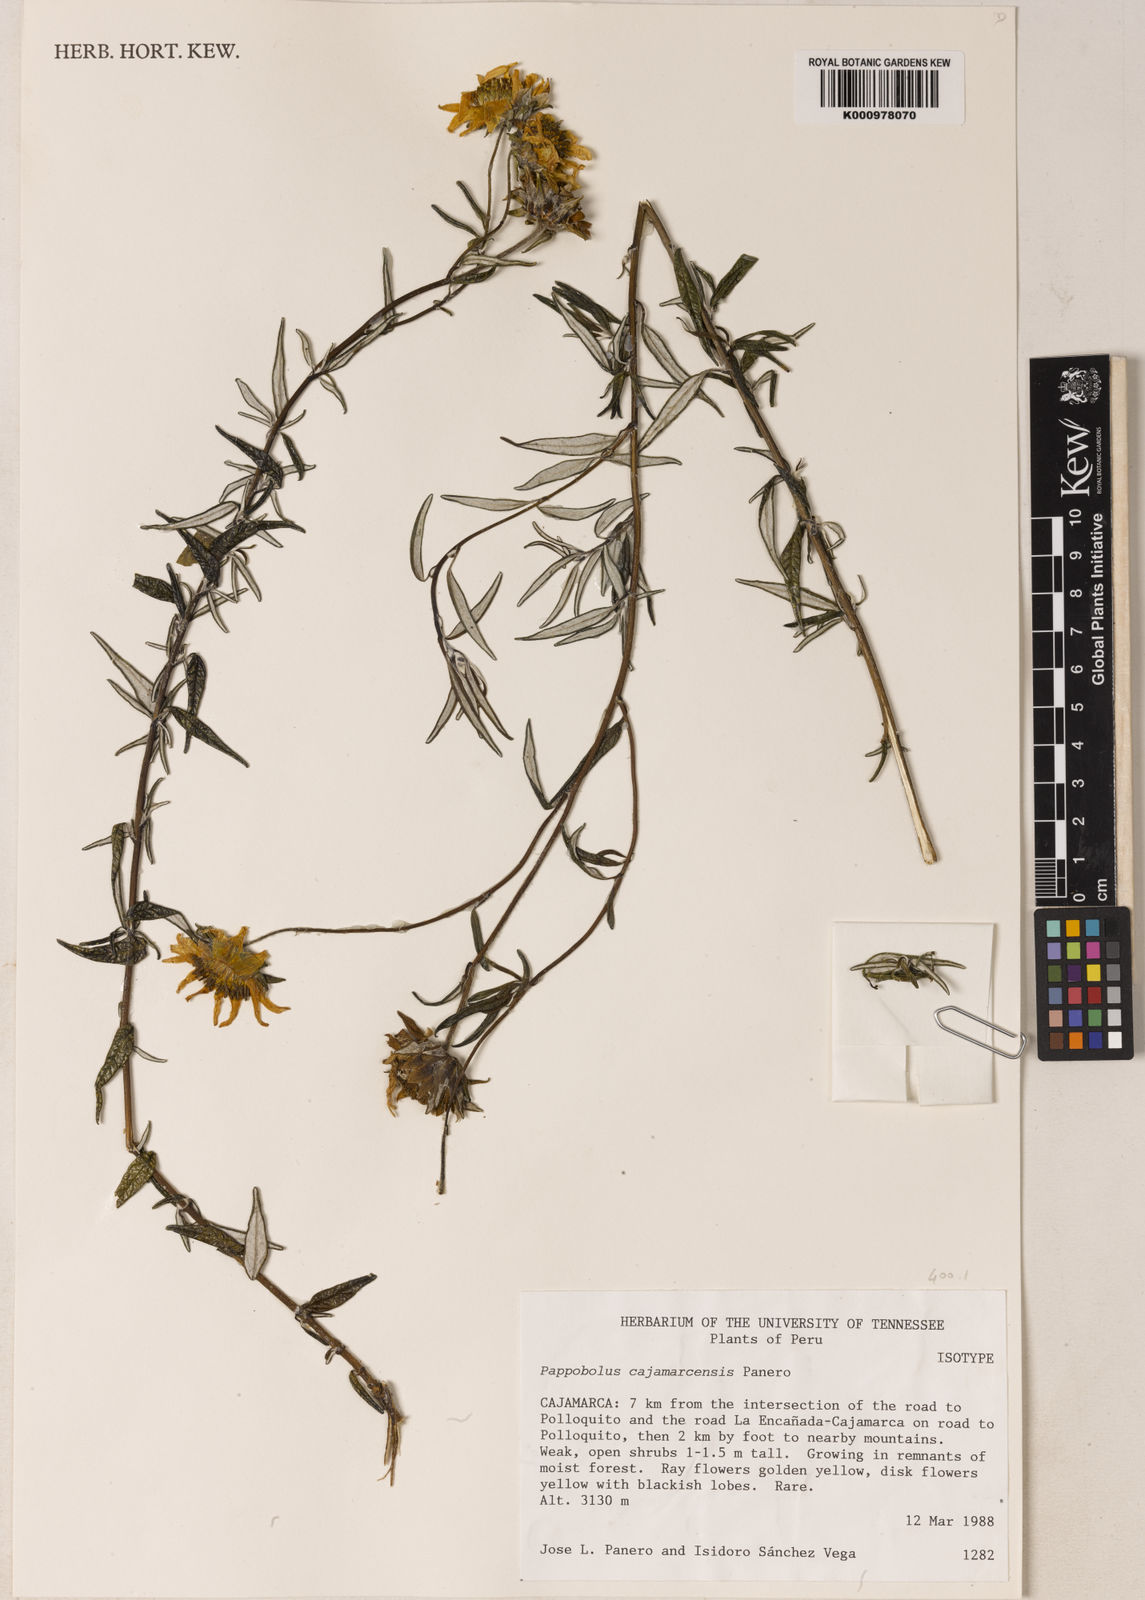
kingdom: Plantae
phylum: Tracheophyta
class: Magnoliopsida
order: Asterales
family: Asteraceae
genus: Pappobolus
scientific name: Pappobolus cajamarcensis
